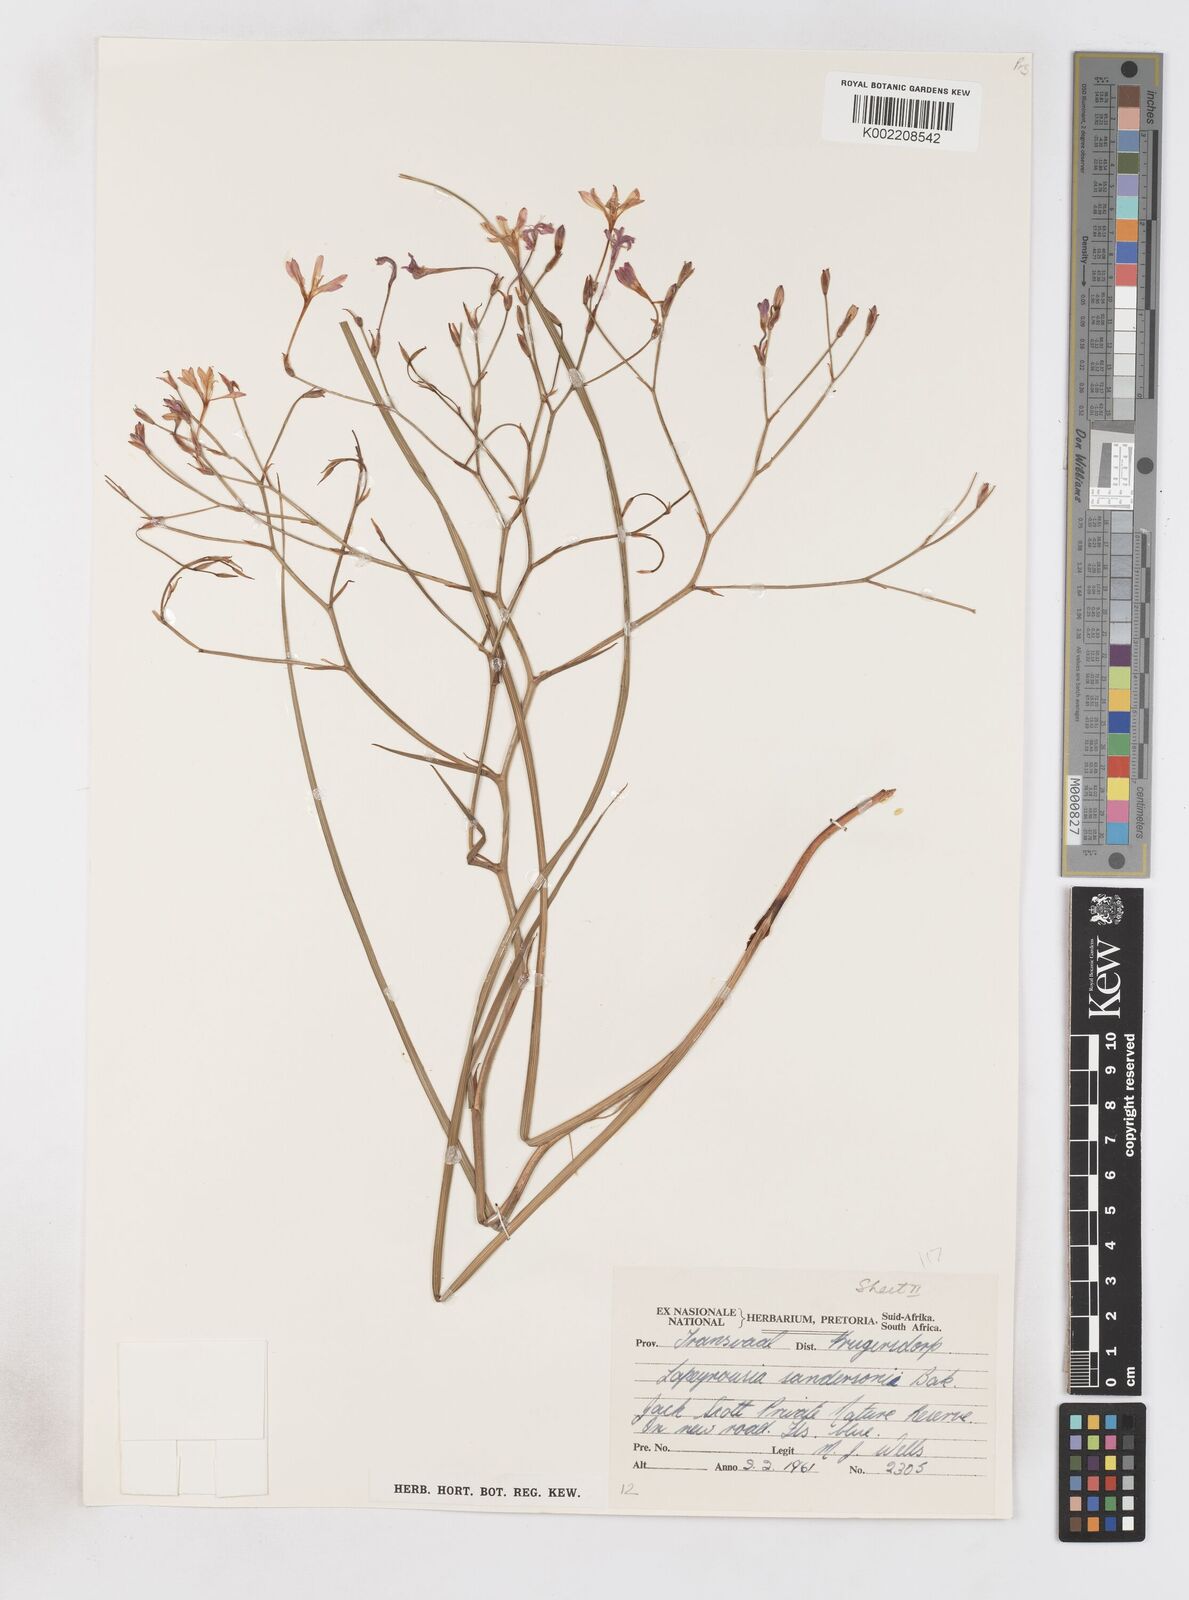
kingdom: Plantae
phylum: Tracheophyta
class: Liliopsida
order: Asparagales
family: Iridaceae
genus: Afrosolen
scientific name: Afrosolen sandersonii
